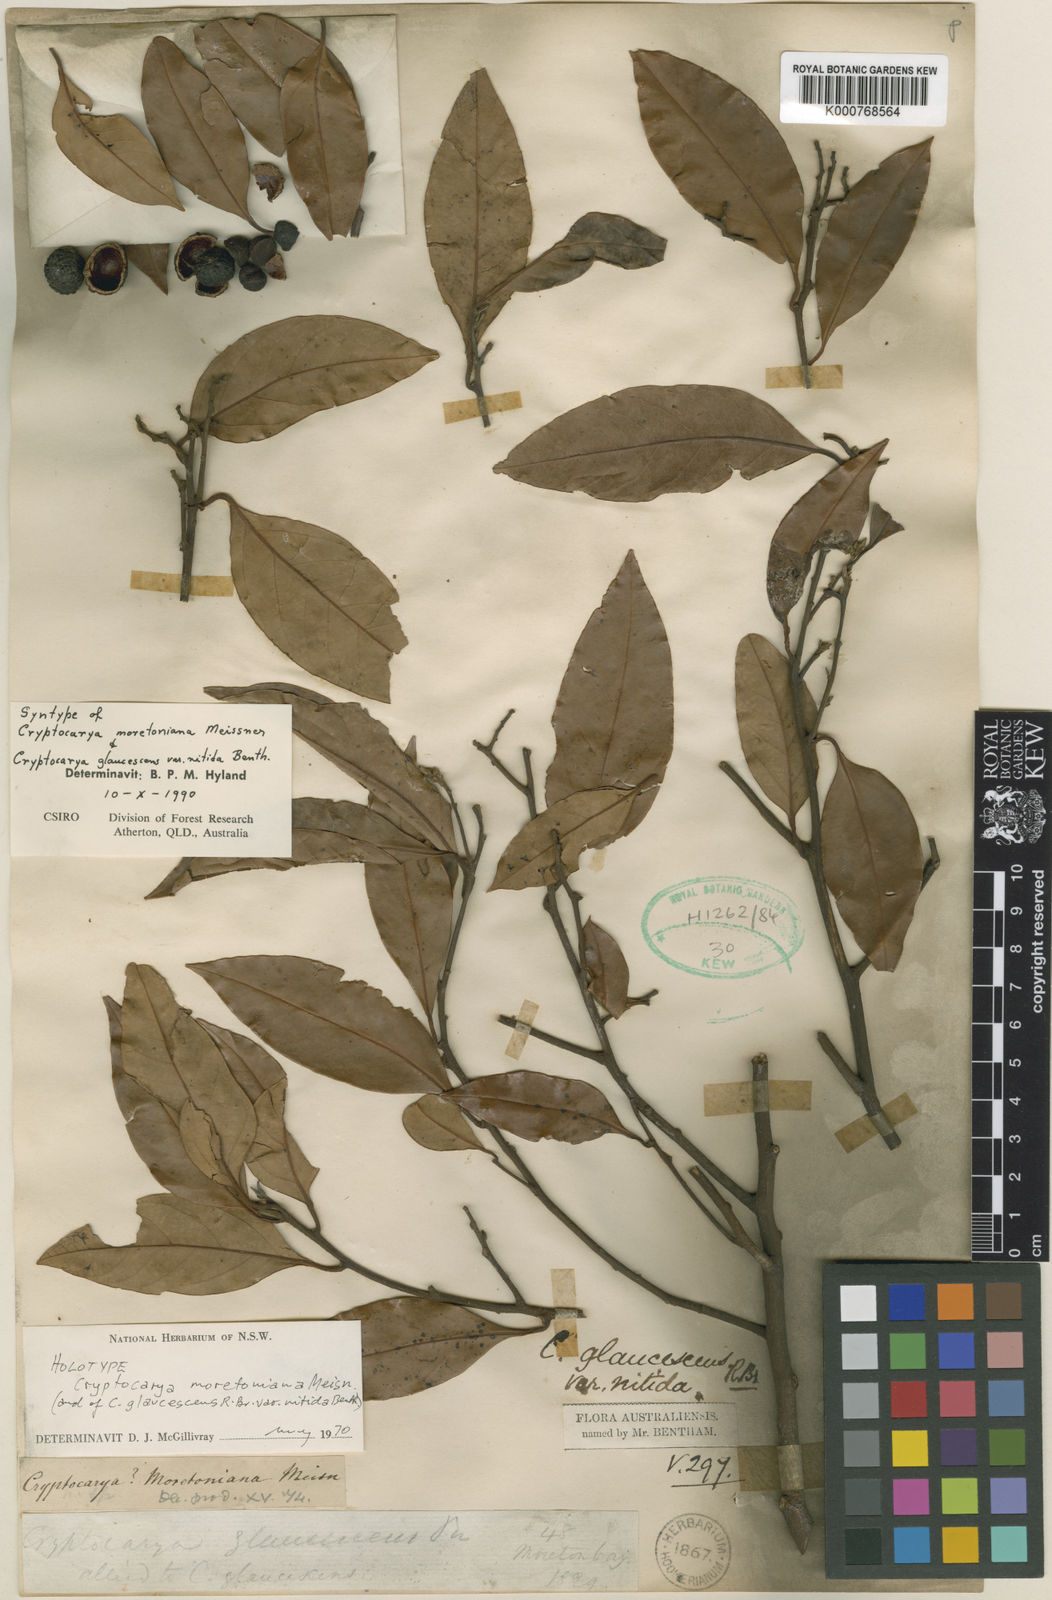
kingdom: Plantae
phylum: Tracheophyta
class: Magnoliopsida
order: Laurales
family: Lauraceae
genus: Cryptocarya
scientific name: Cryptocarya glaucescens
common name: Bolly-laurel
